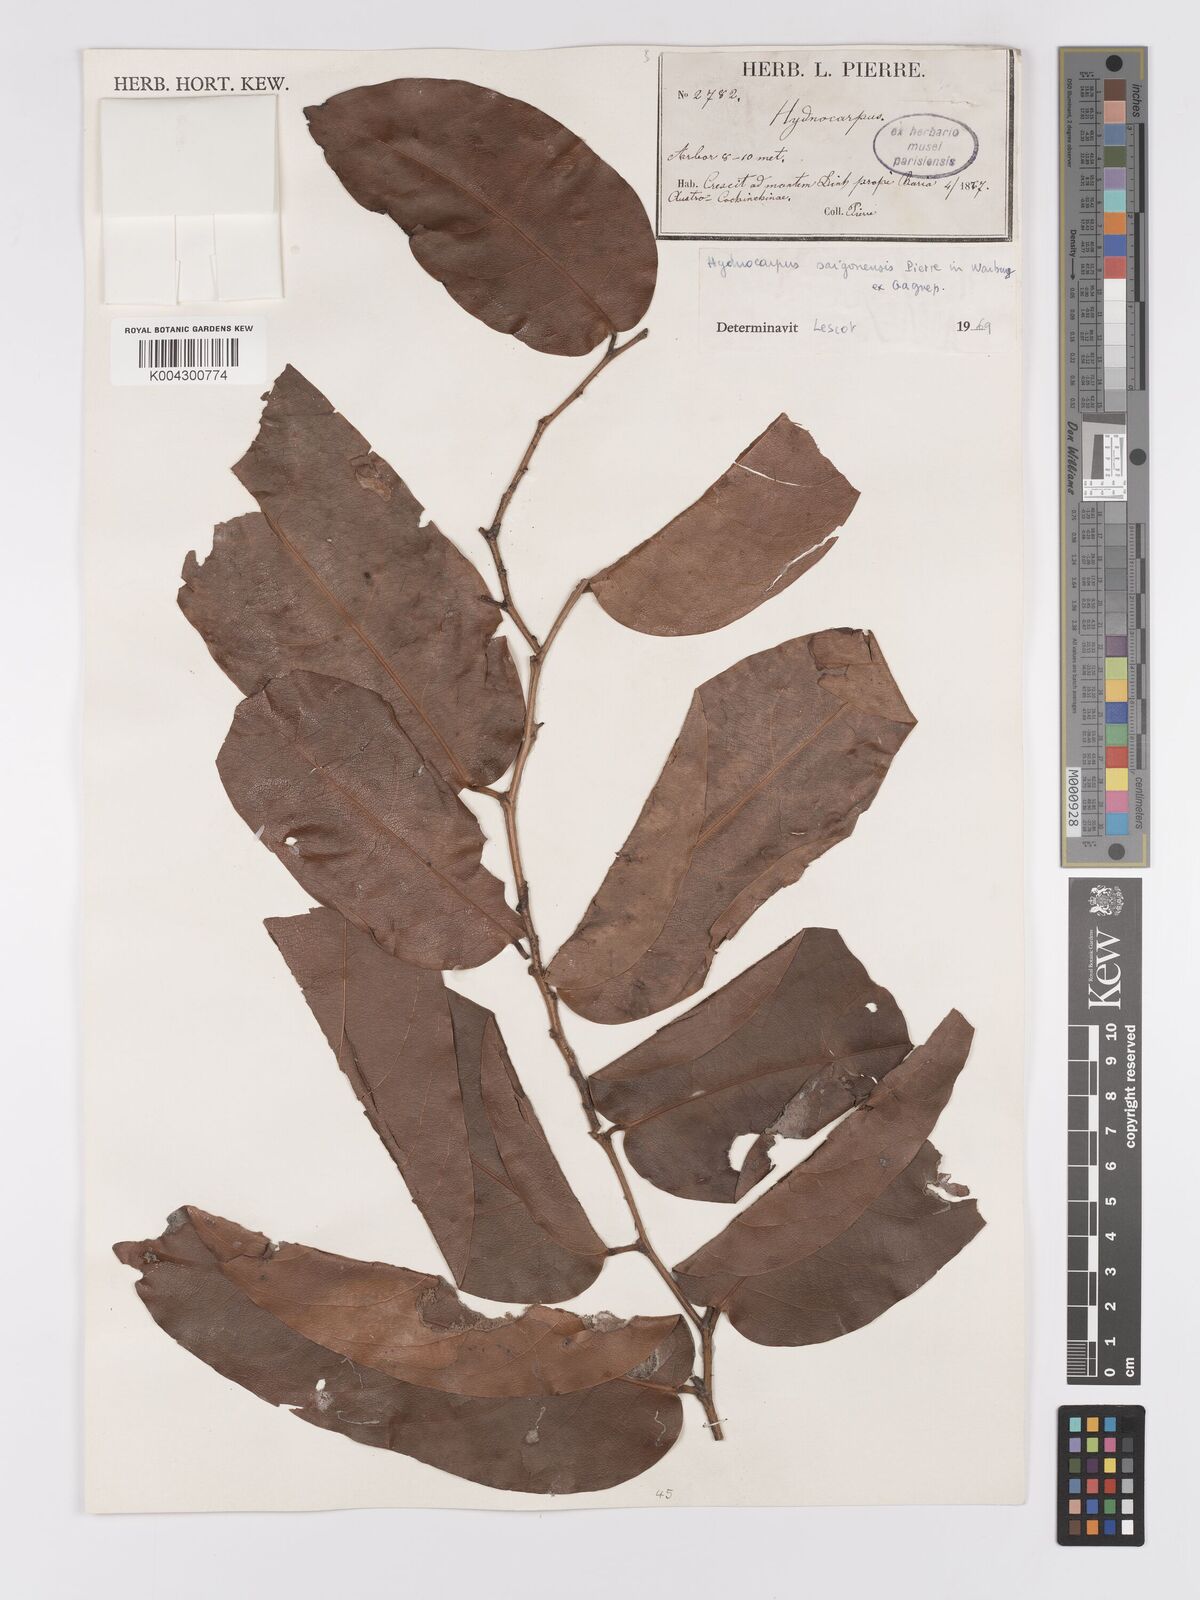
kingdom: Plantae
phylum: Tracheophyta
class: Magnoliopsida
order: Malpighiales
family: Achariaceae
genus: Hydnocarpus
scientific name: Hydnocarpus saigonensis
